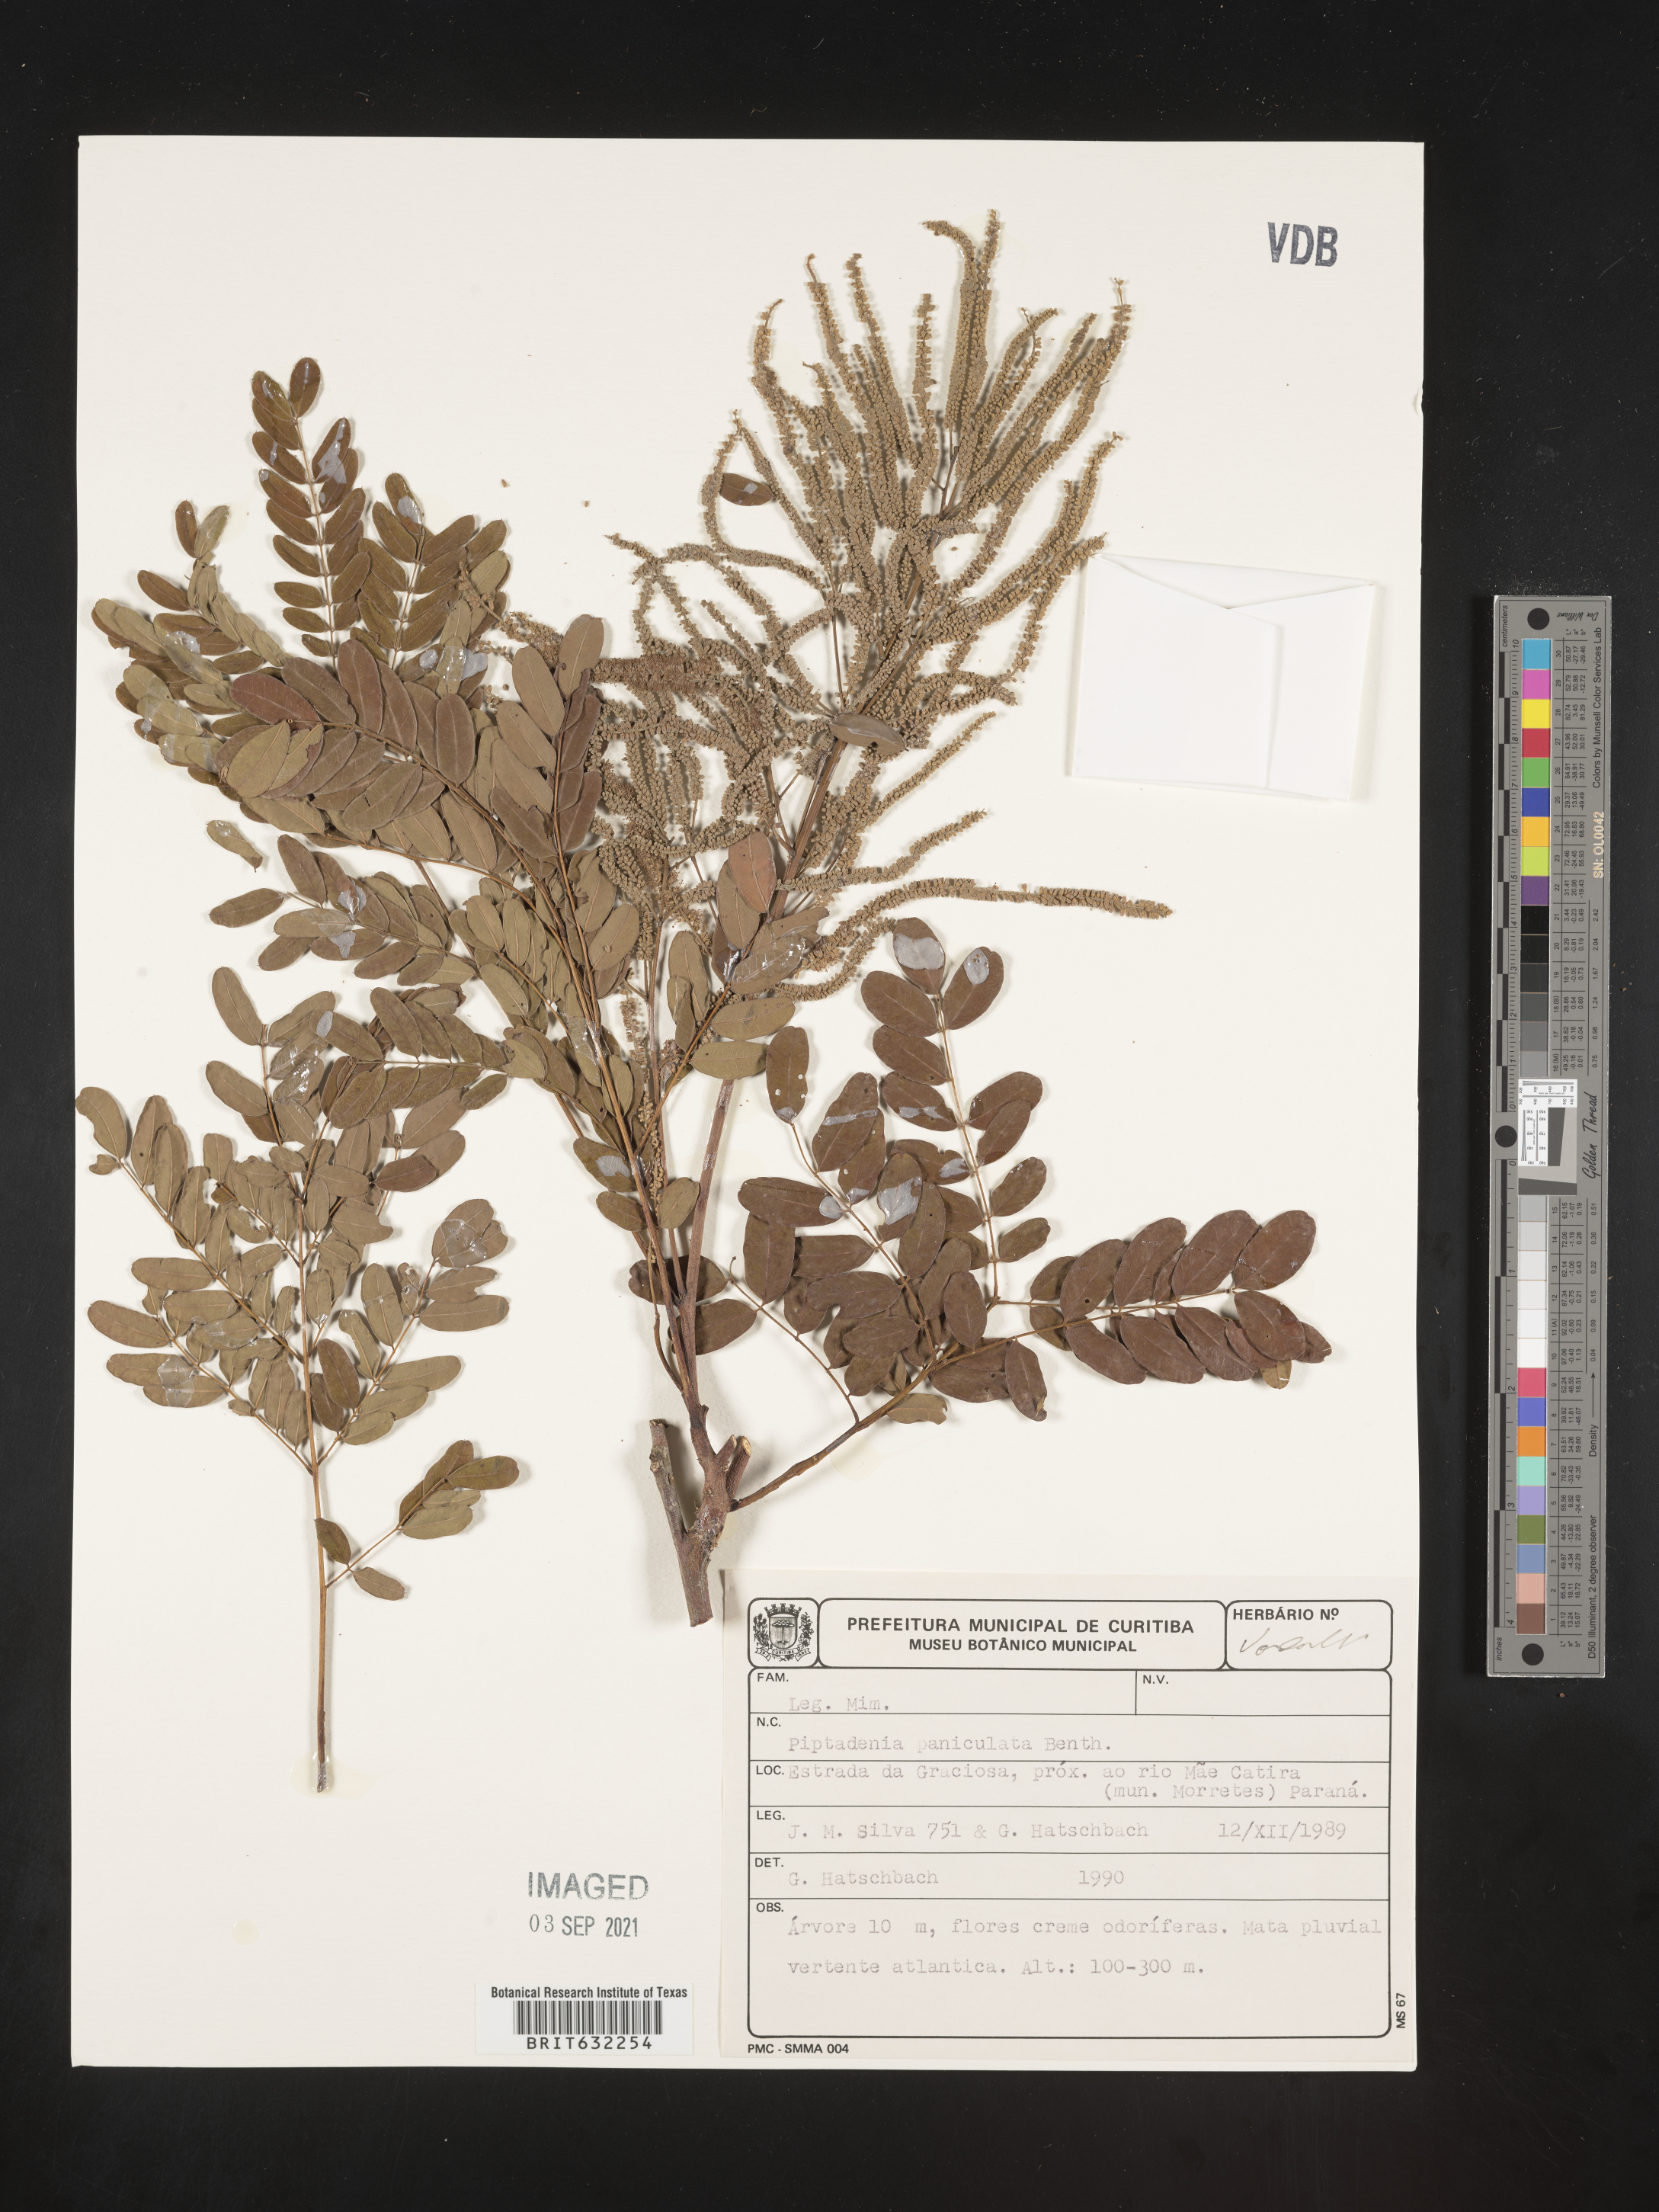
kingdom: Plantae
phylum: Tracheophyta
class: Magnoliopsida
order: Fabales
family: Fabaceae
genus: Piptadenia
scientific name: Piptadenia
